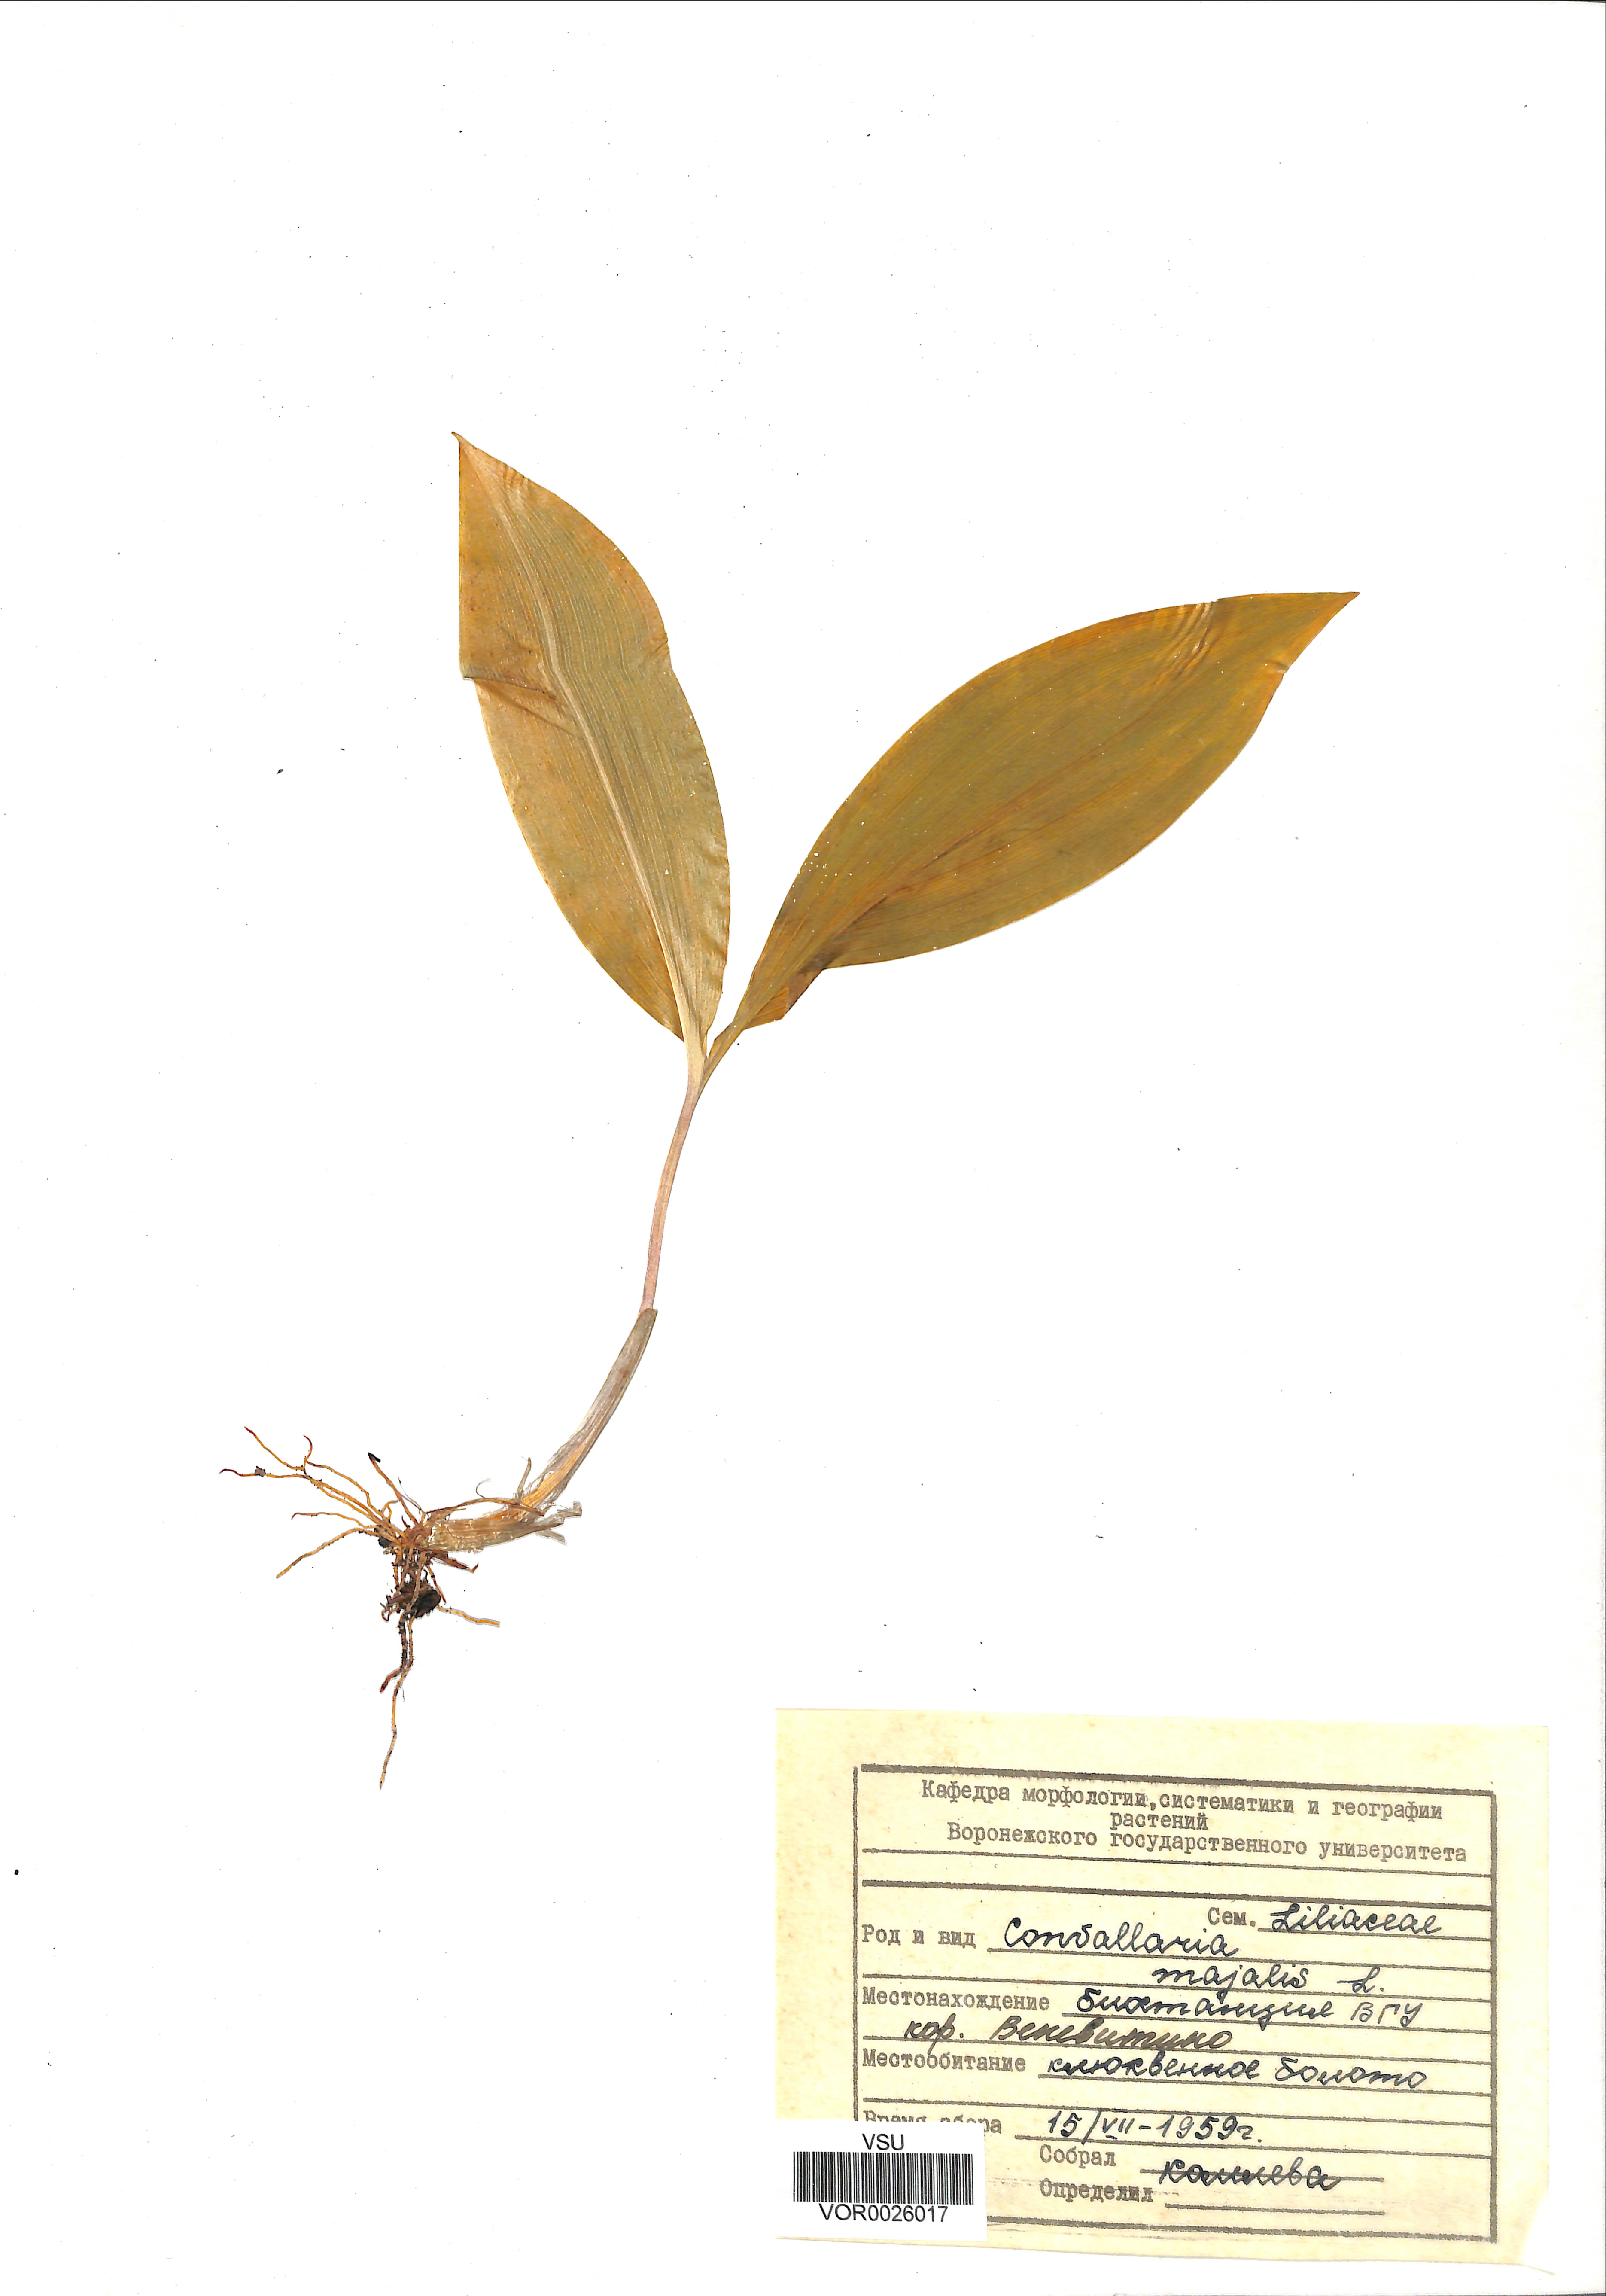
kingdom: Plantae
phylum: Tracheophyta
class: Liliopsida
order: Asparagales
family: Asparagaceae
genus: Convallaria
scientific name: Convallaria majalis
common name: Lily-of-the-valley
